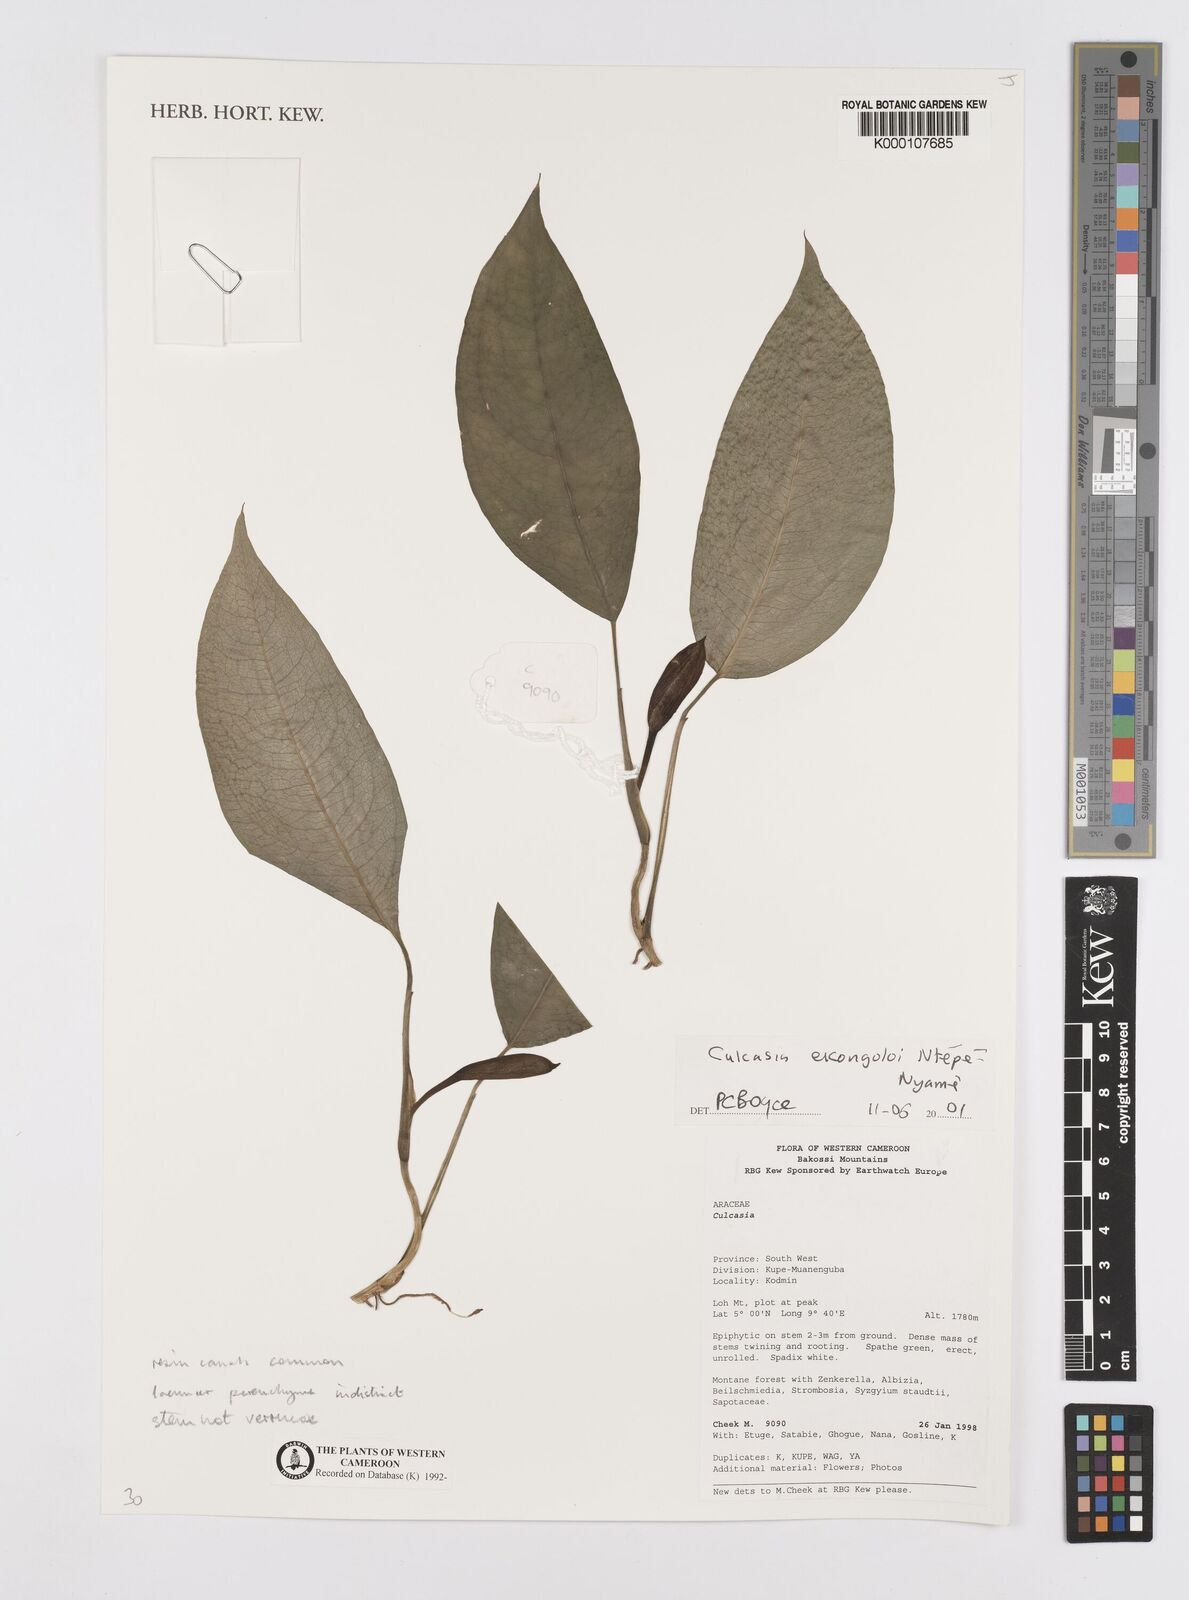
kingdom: Plantae
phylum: Tracheophyta
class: Liliopsida
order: Alismatales
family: Araceae
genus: Culcasia
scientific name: Culcasia
